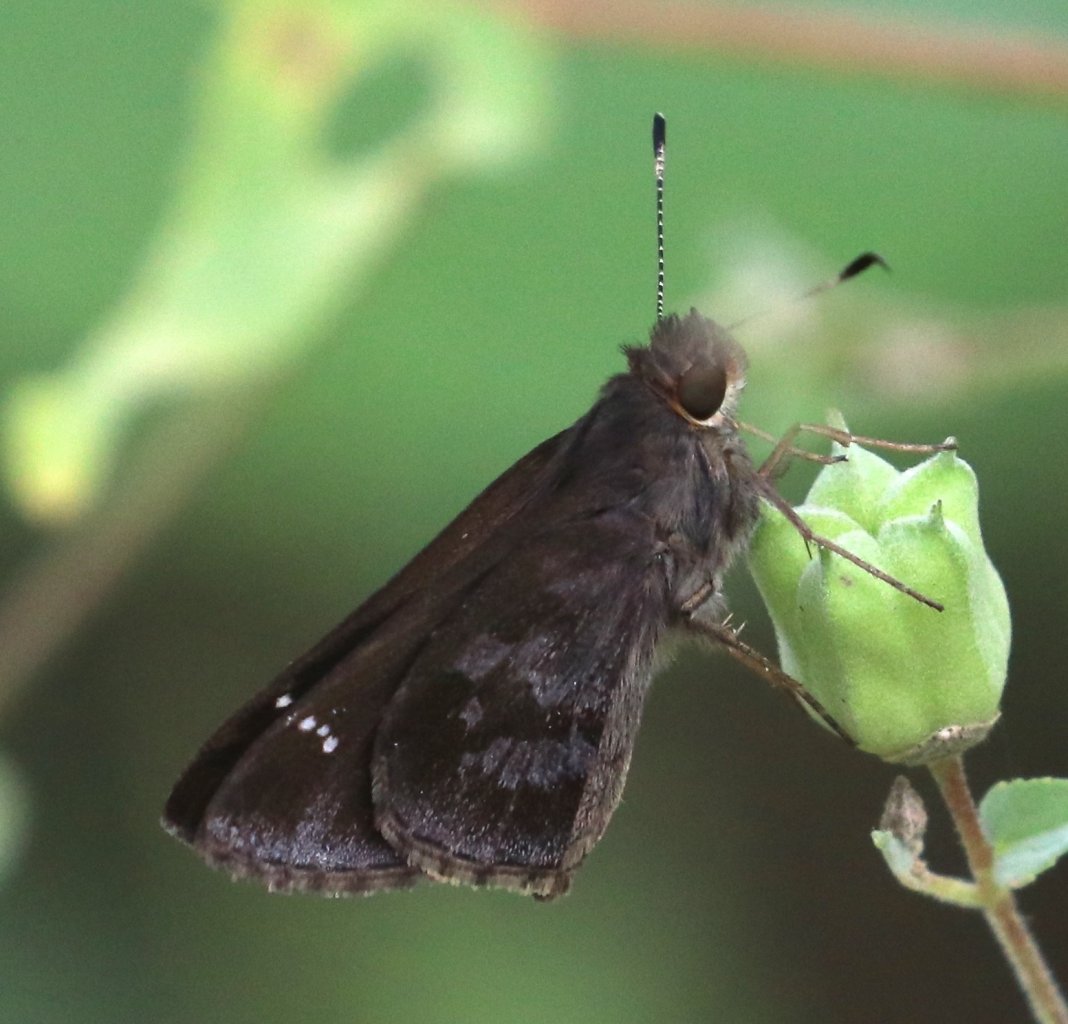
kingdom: Animalia
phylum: Arthropoda
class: Insecta
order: Lepidoptera
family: Hesperiidae
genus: Cymaenes
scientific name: Cymaenes odilia
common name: Fawn-spotted Skipper
